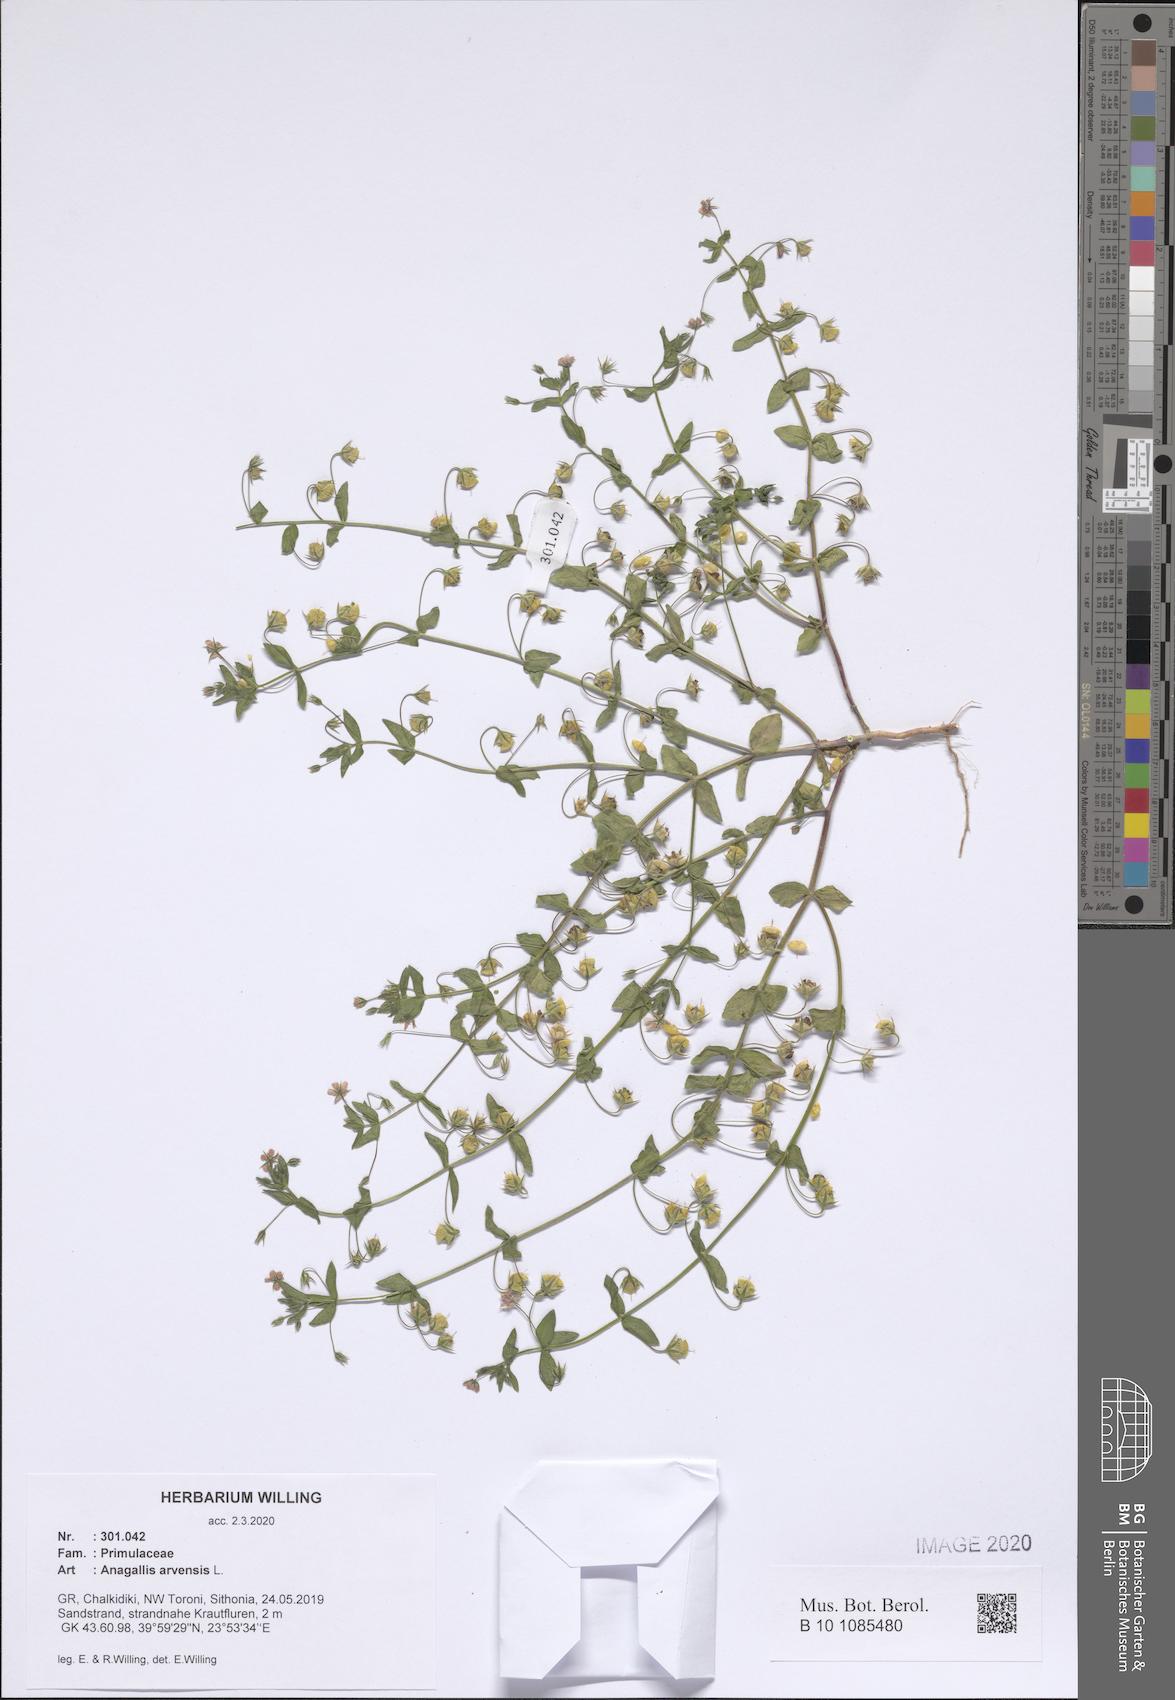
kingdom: Plantae
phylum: Tracheophyta
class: Magnoliopsida
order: Ericales
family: Primulaceae
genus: Lysimachia
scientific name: Lysimachia arvensis
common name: Scarlet pimpernel
